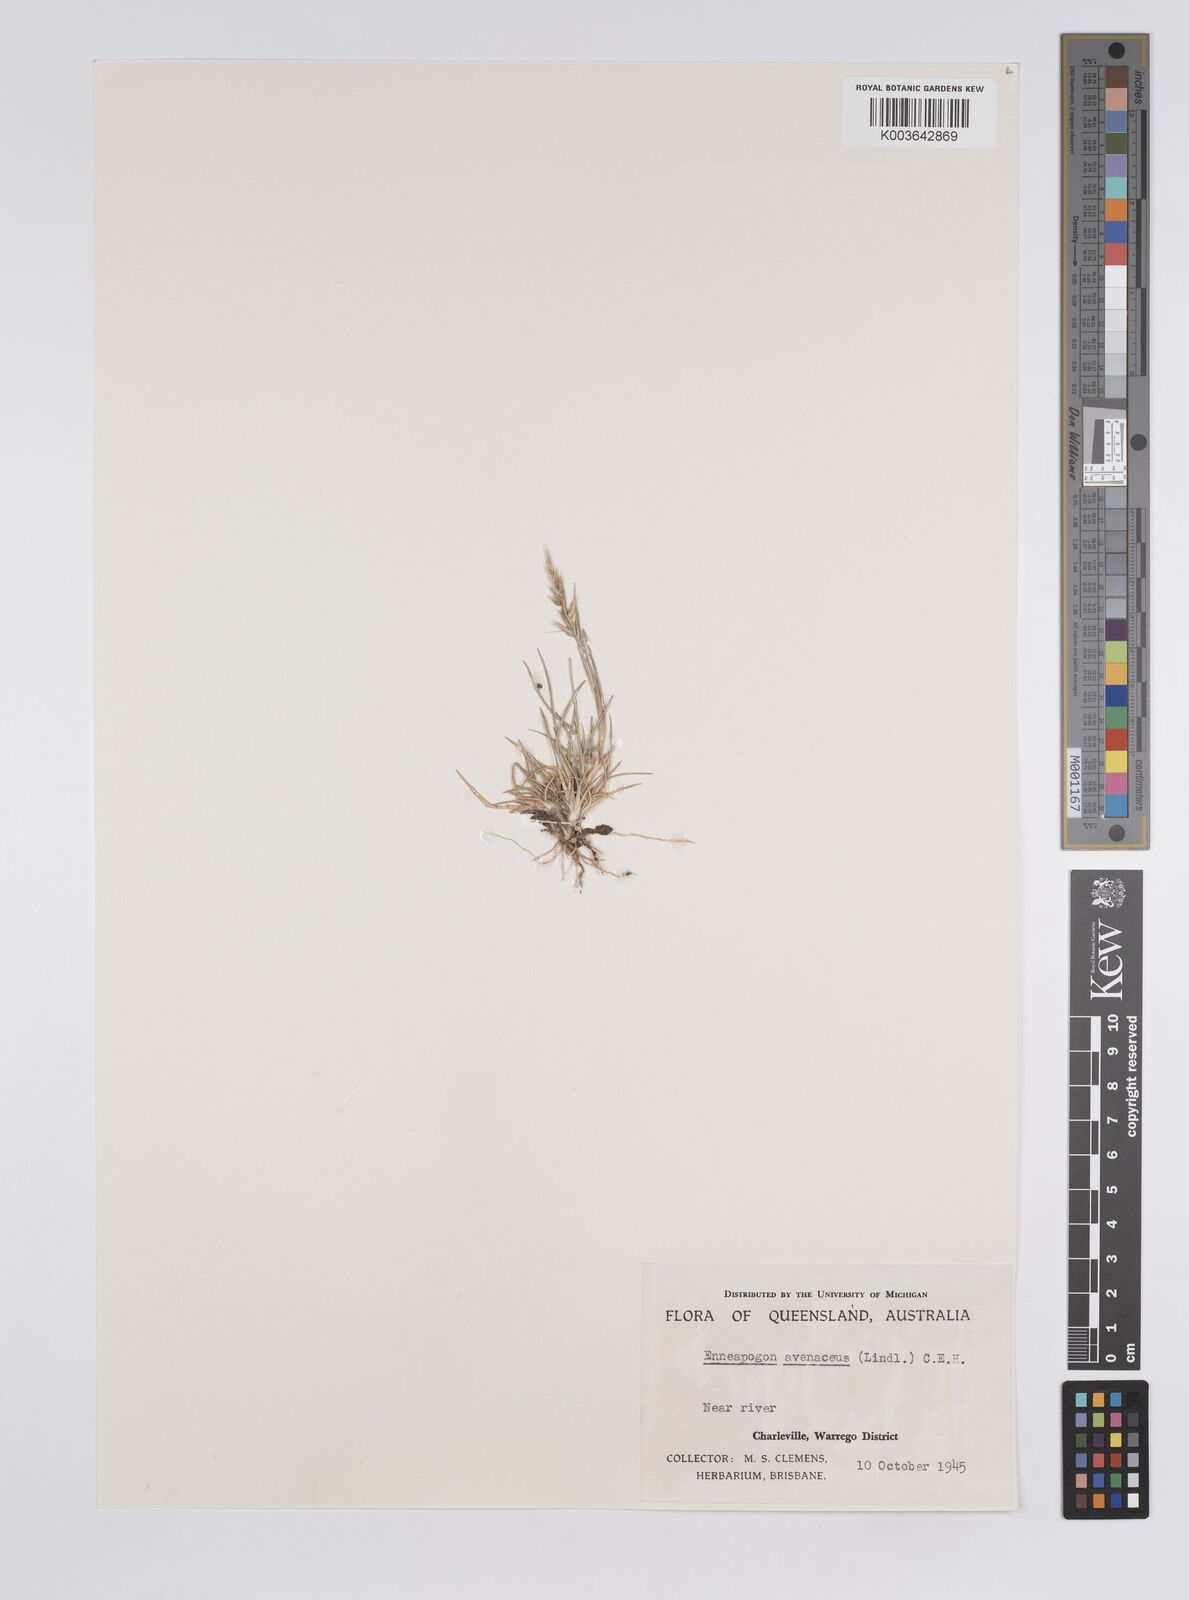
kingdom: Plantae
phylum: Tracheophyta
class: Liliopsida
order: Poales
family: Poaceae
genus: Enneapogon
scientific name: Enneapogon avenaceus
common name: Hairy oat grass
